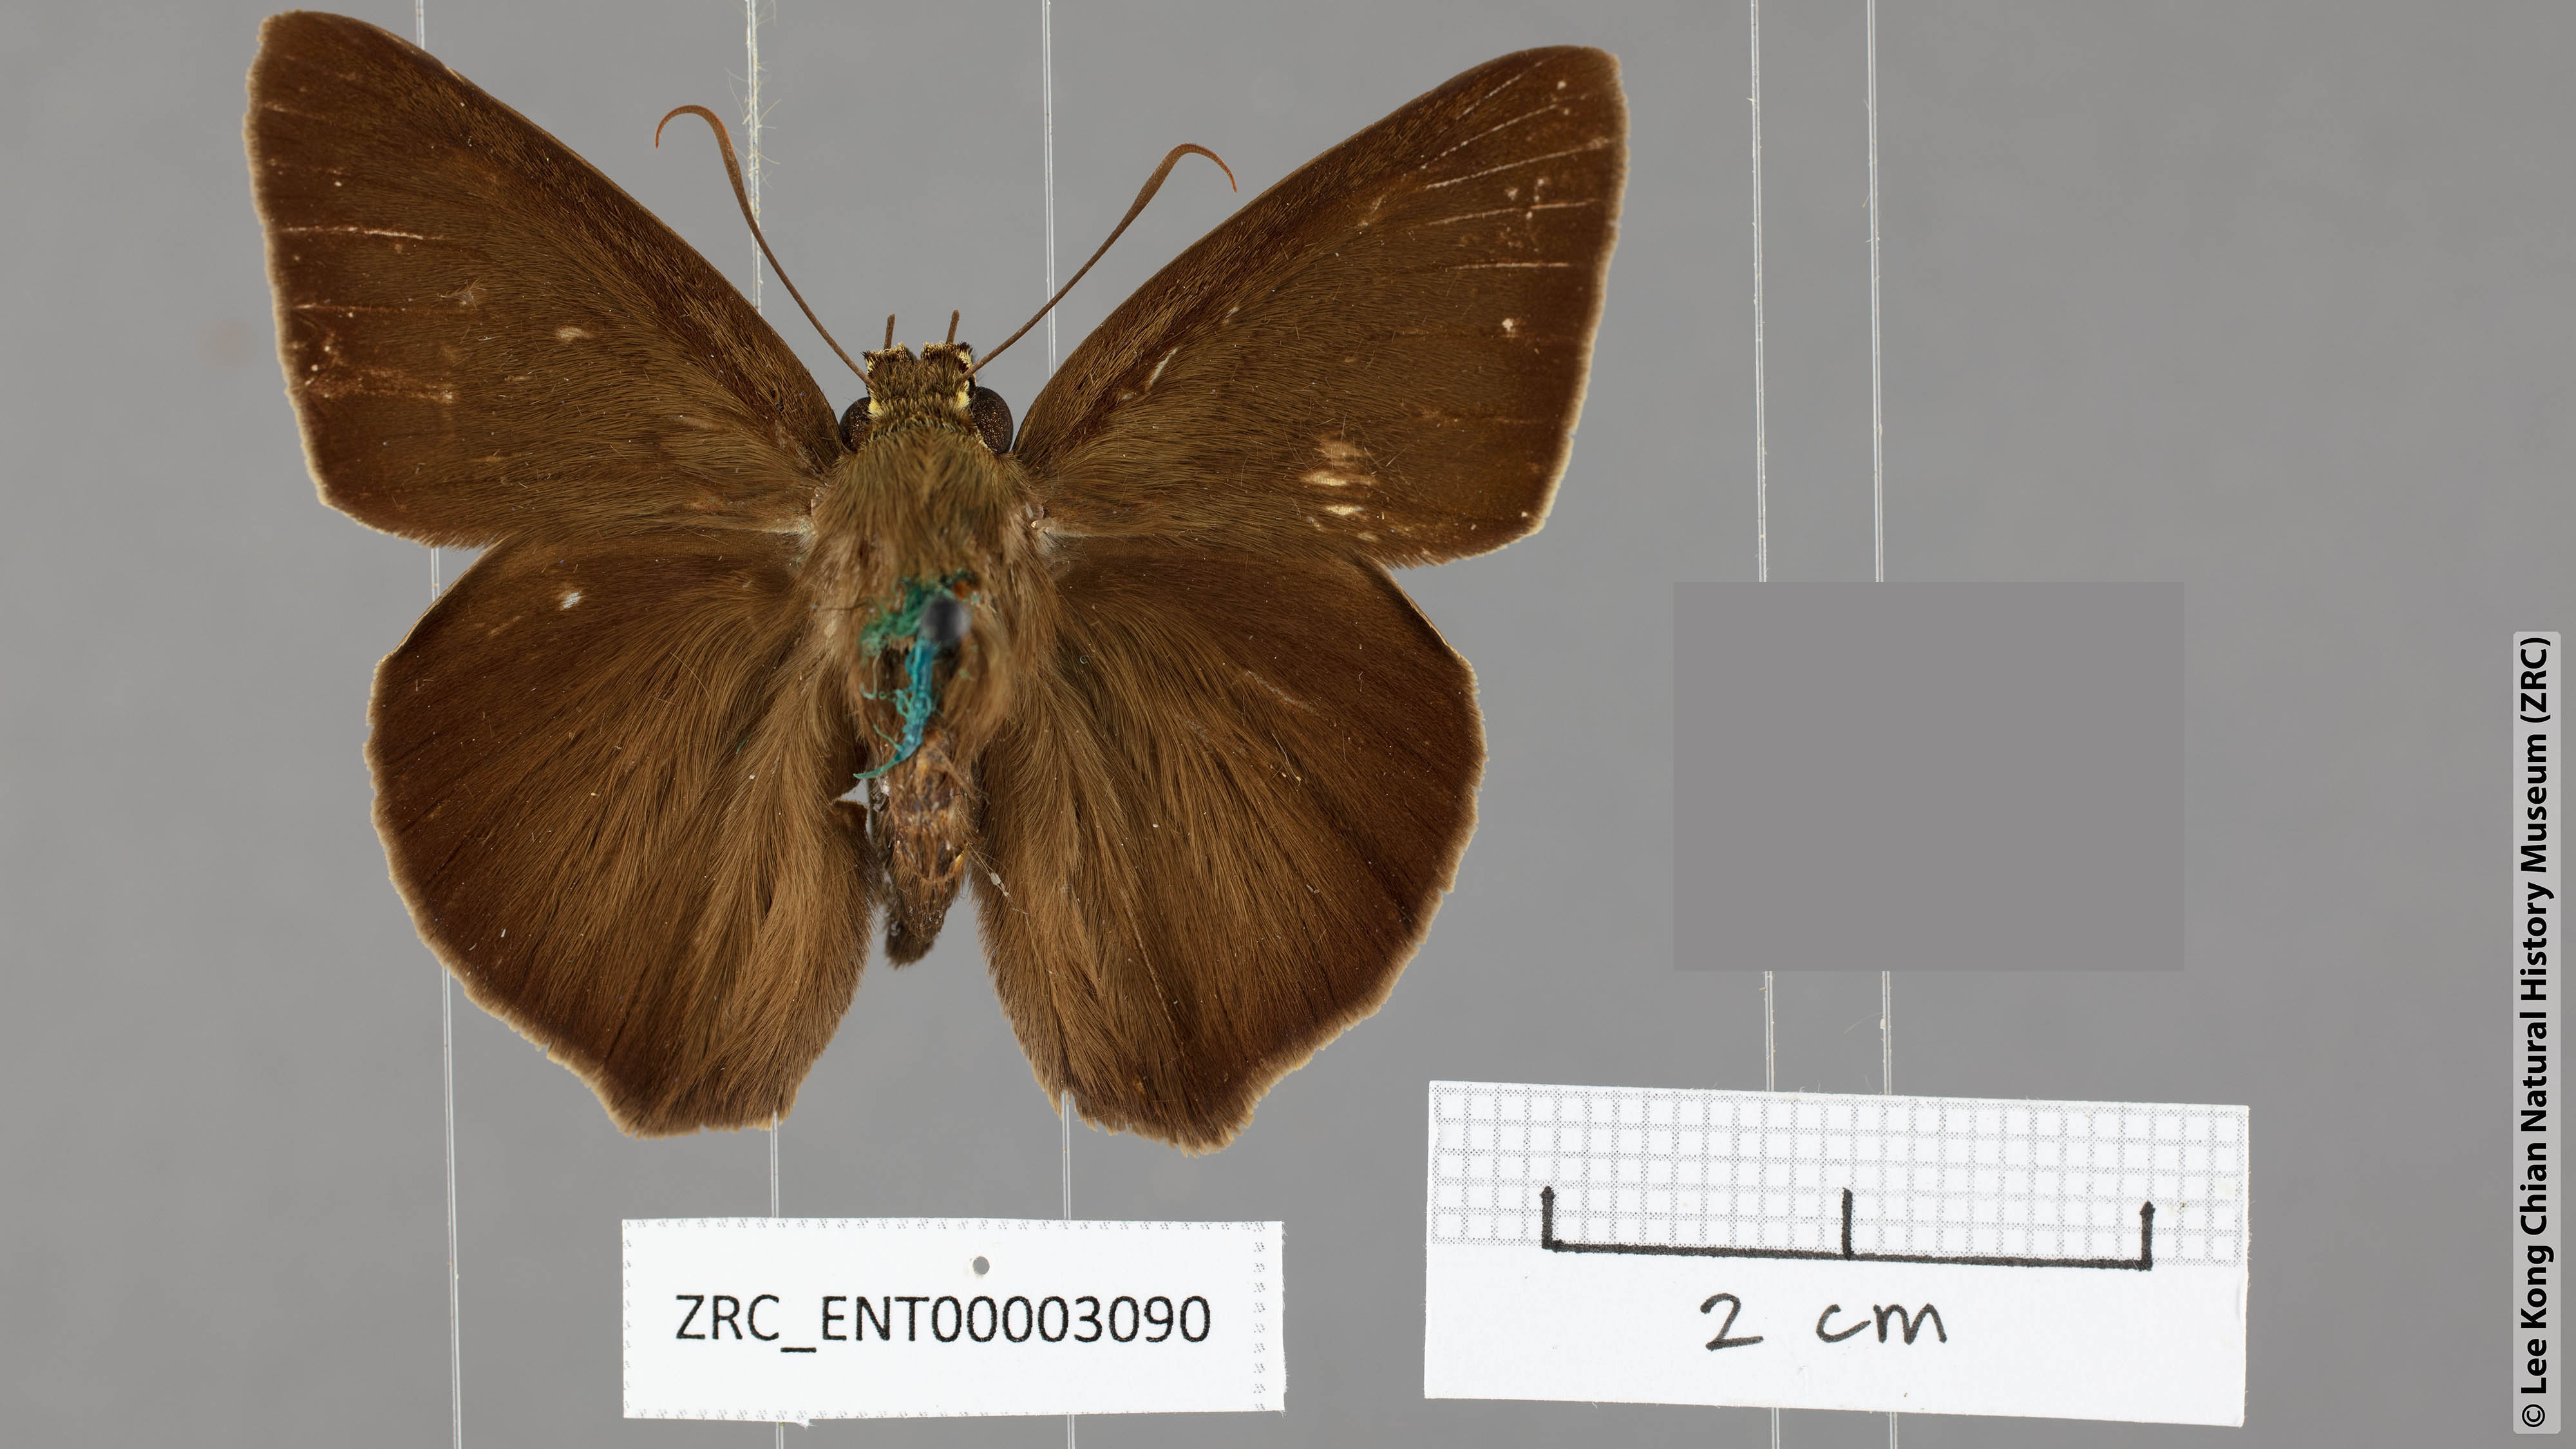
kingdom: Animalia
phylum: Arthropoda
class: Insecta
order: Lepidoptera
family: Hesperiidae
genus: Hasora
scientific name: Hasora zoma
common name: Dark banded awl
